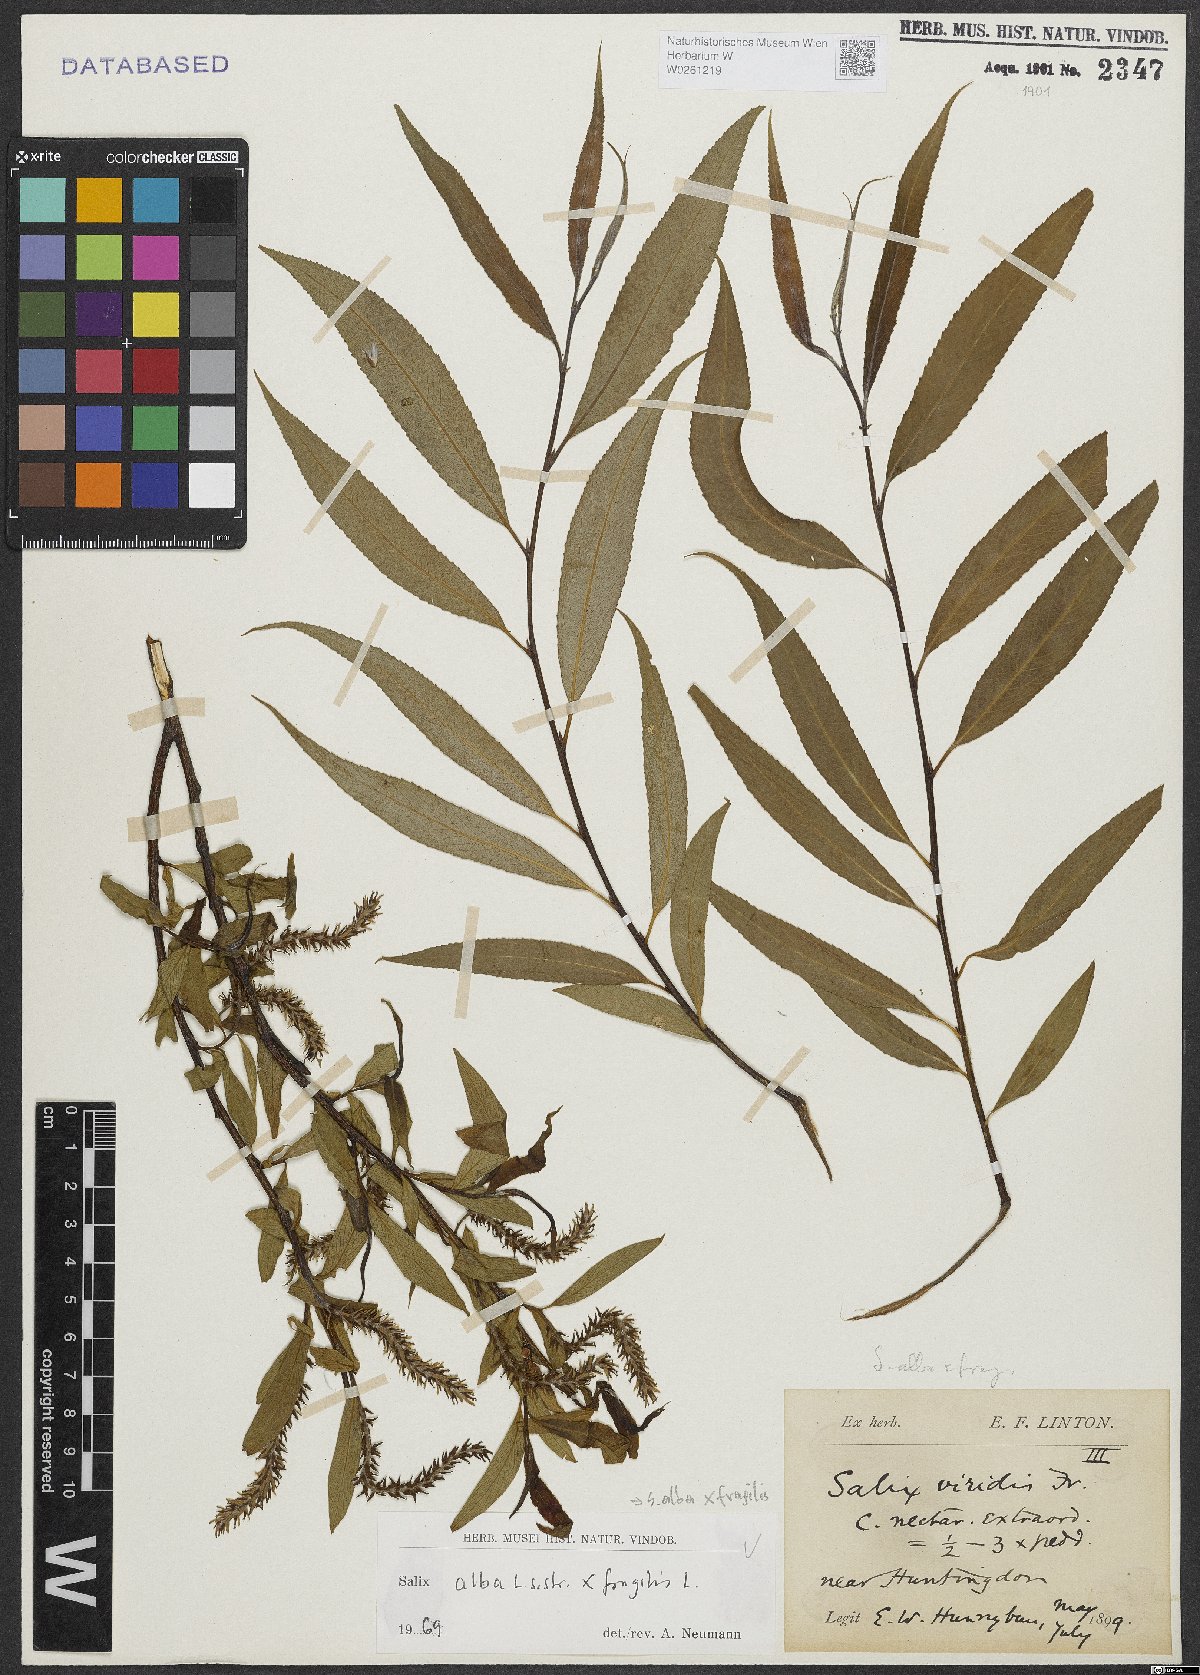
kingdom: Plantae
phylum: Tracheophyta
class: Magnoliopsida
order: Malpighiales
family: Salicaceae
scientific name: Salicaceae
